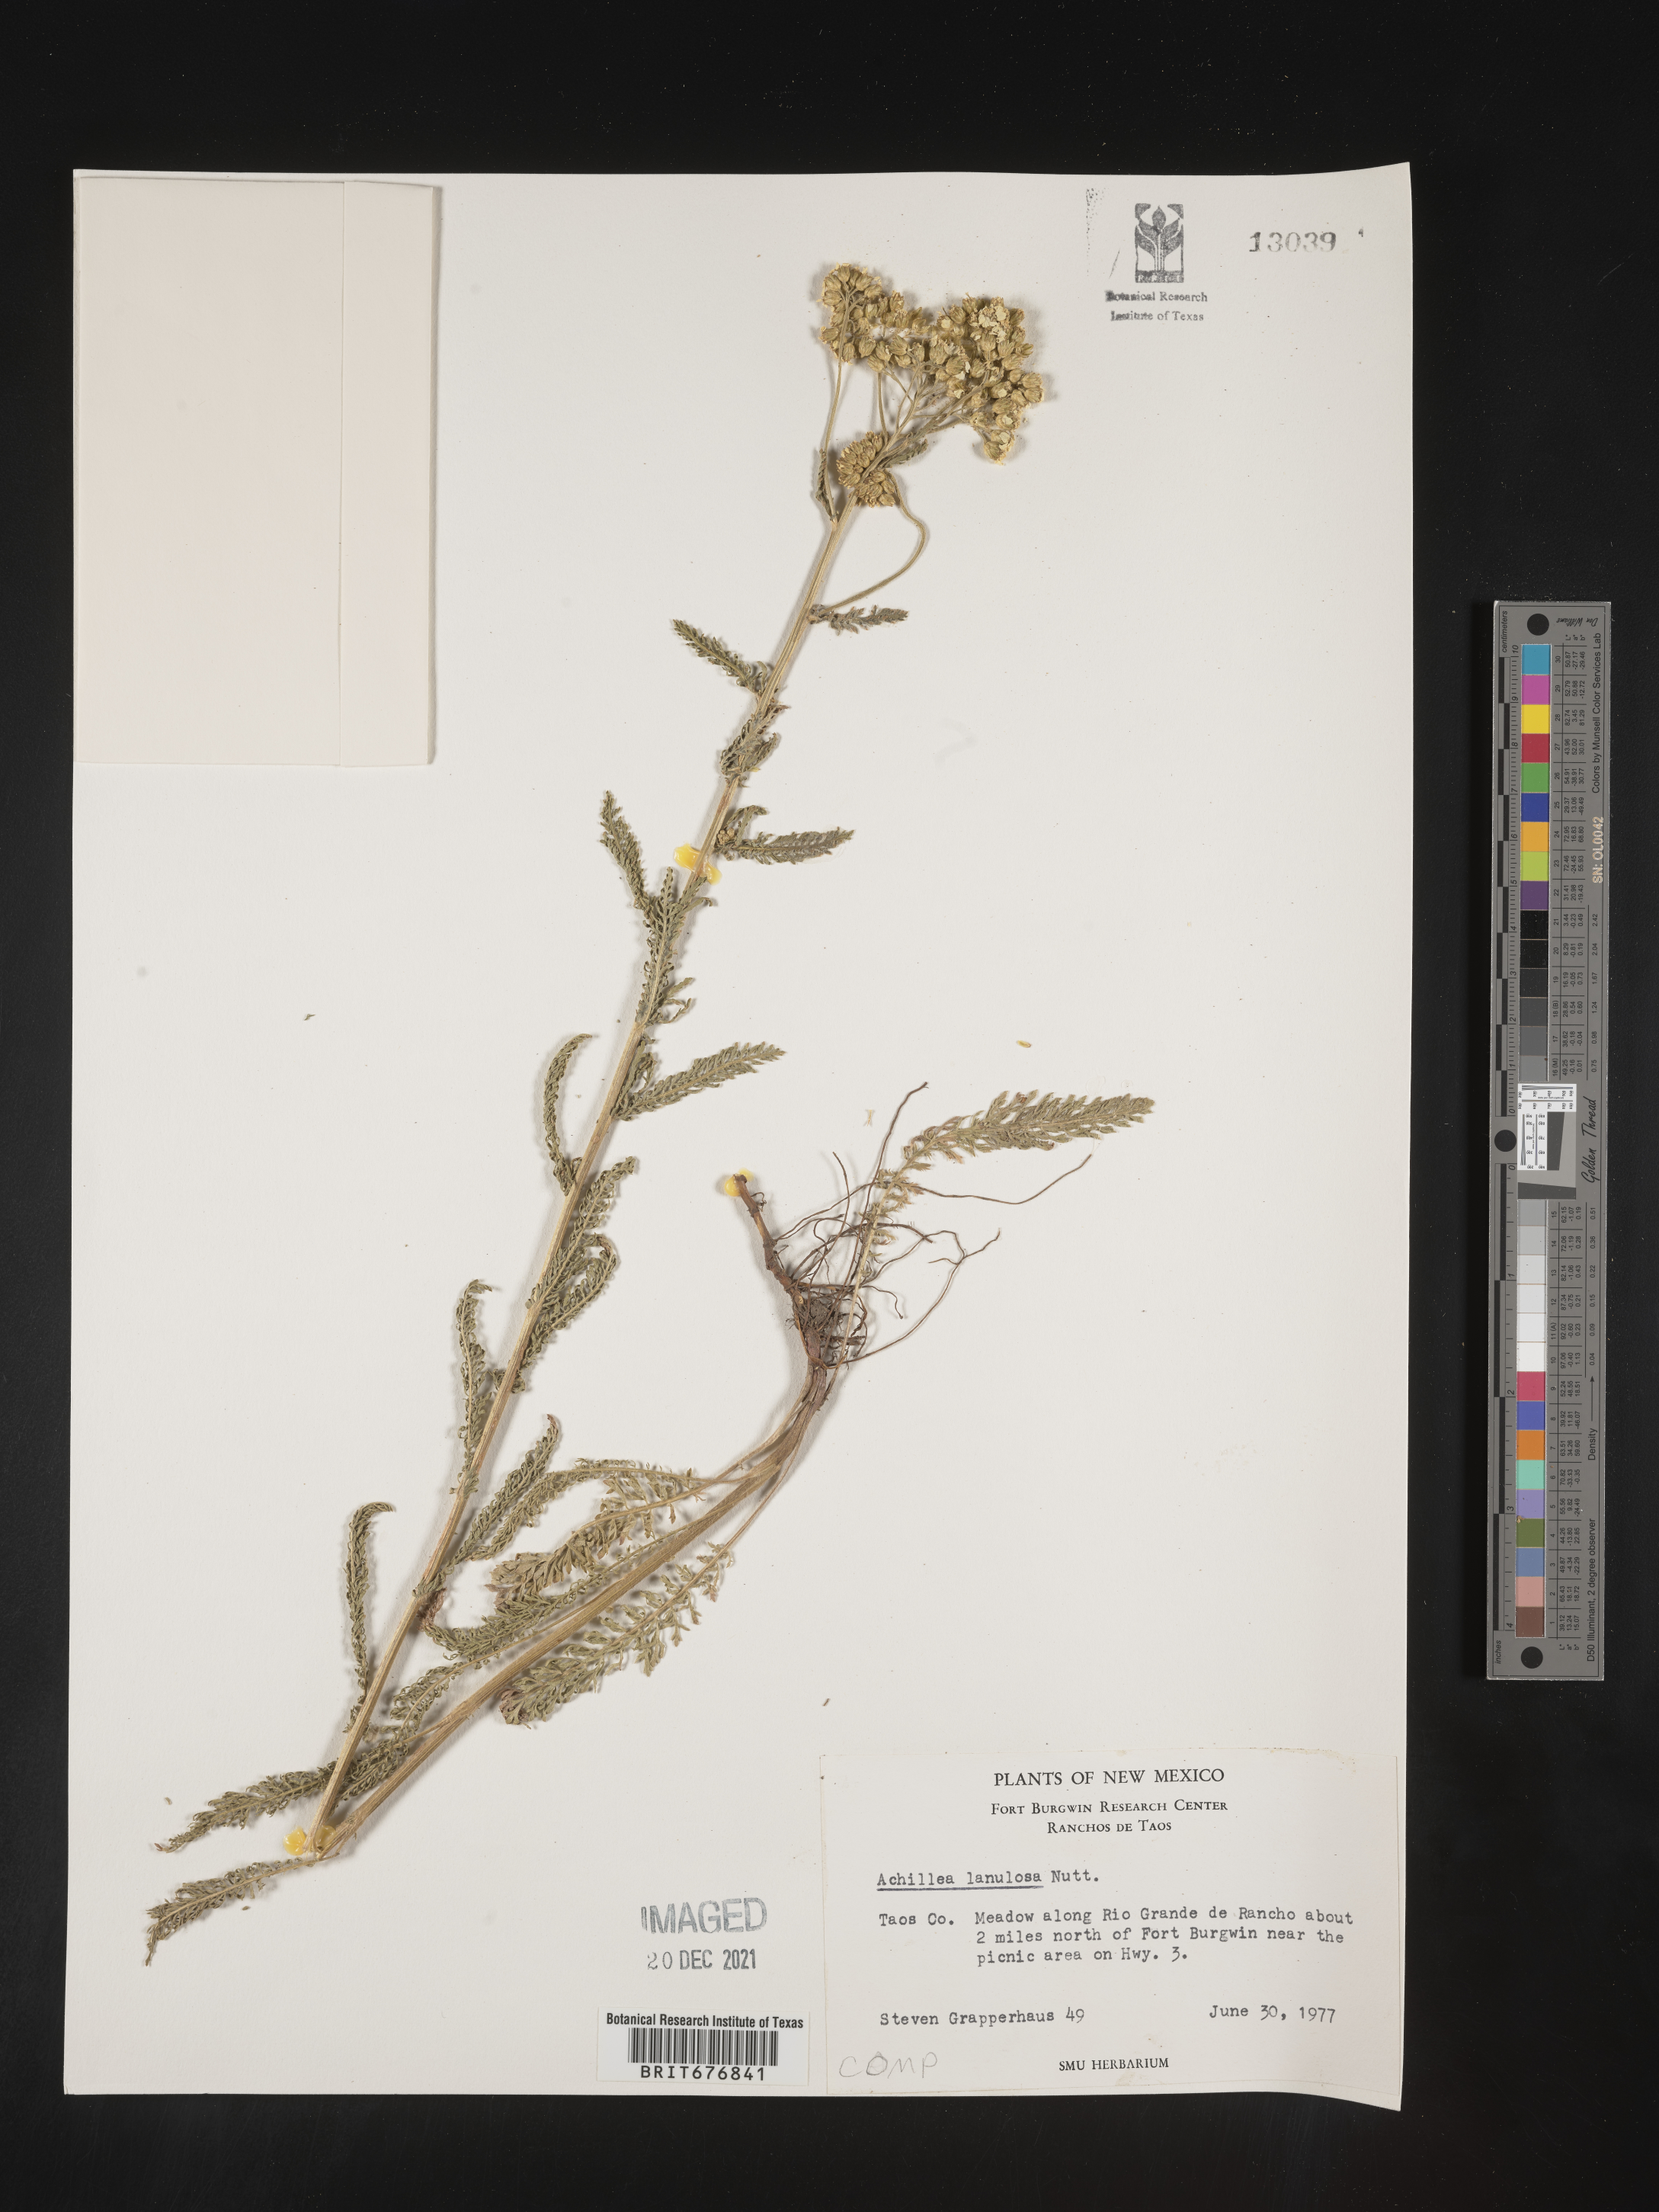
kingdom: Plantae
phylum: Tracheophyta
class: Magnoliopsida
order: Asterales
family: Asteraceae
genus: Achillea
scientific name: Achillea millefolium
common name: Yarrow
